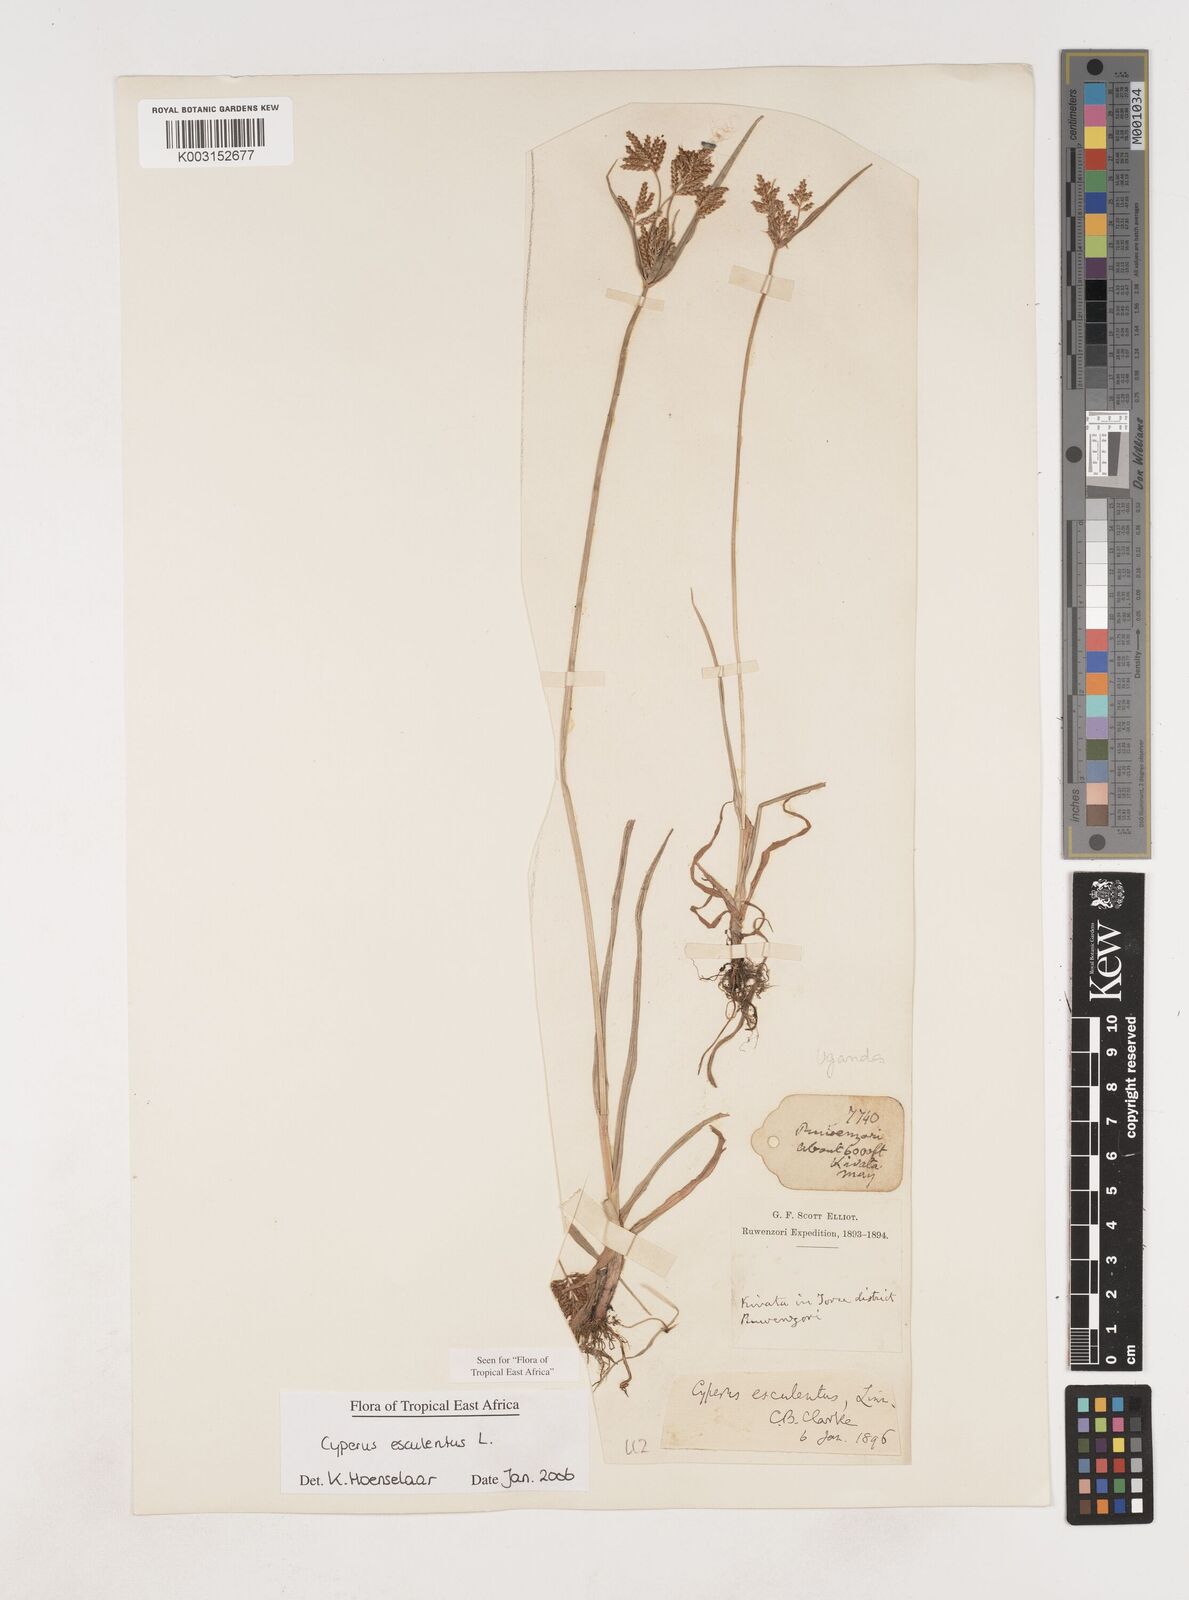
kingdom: Plantae
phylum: Tracheophyta
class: Liliopsida
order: Poales
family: Cyperaceae
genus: Cyperus
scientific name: Cyperus esculentus
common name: Yellow nutsedge
